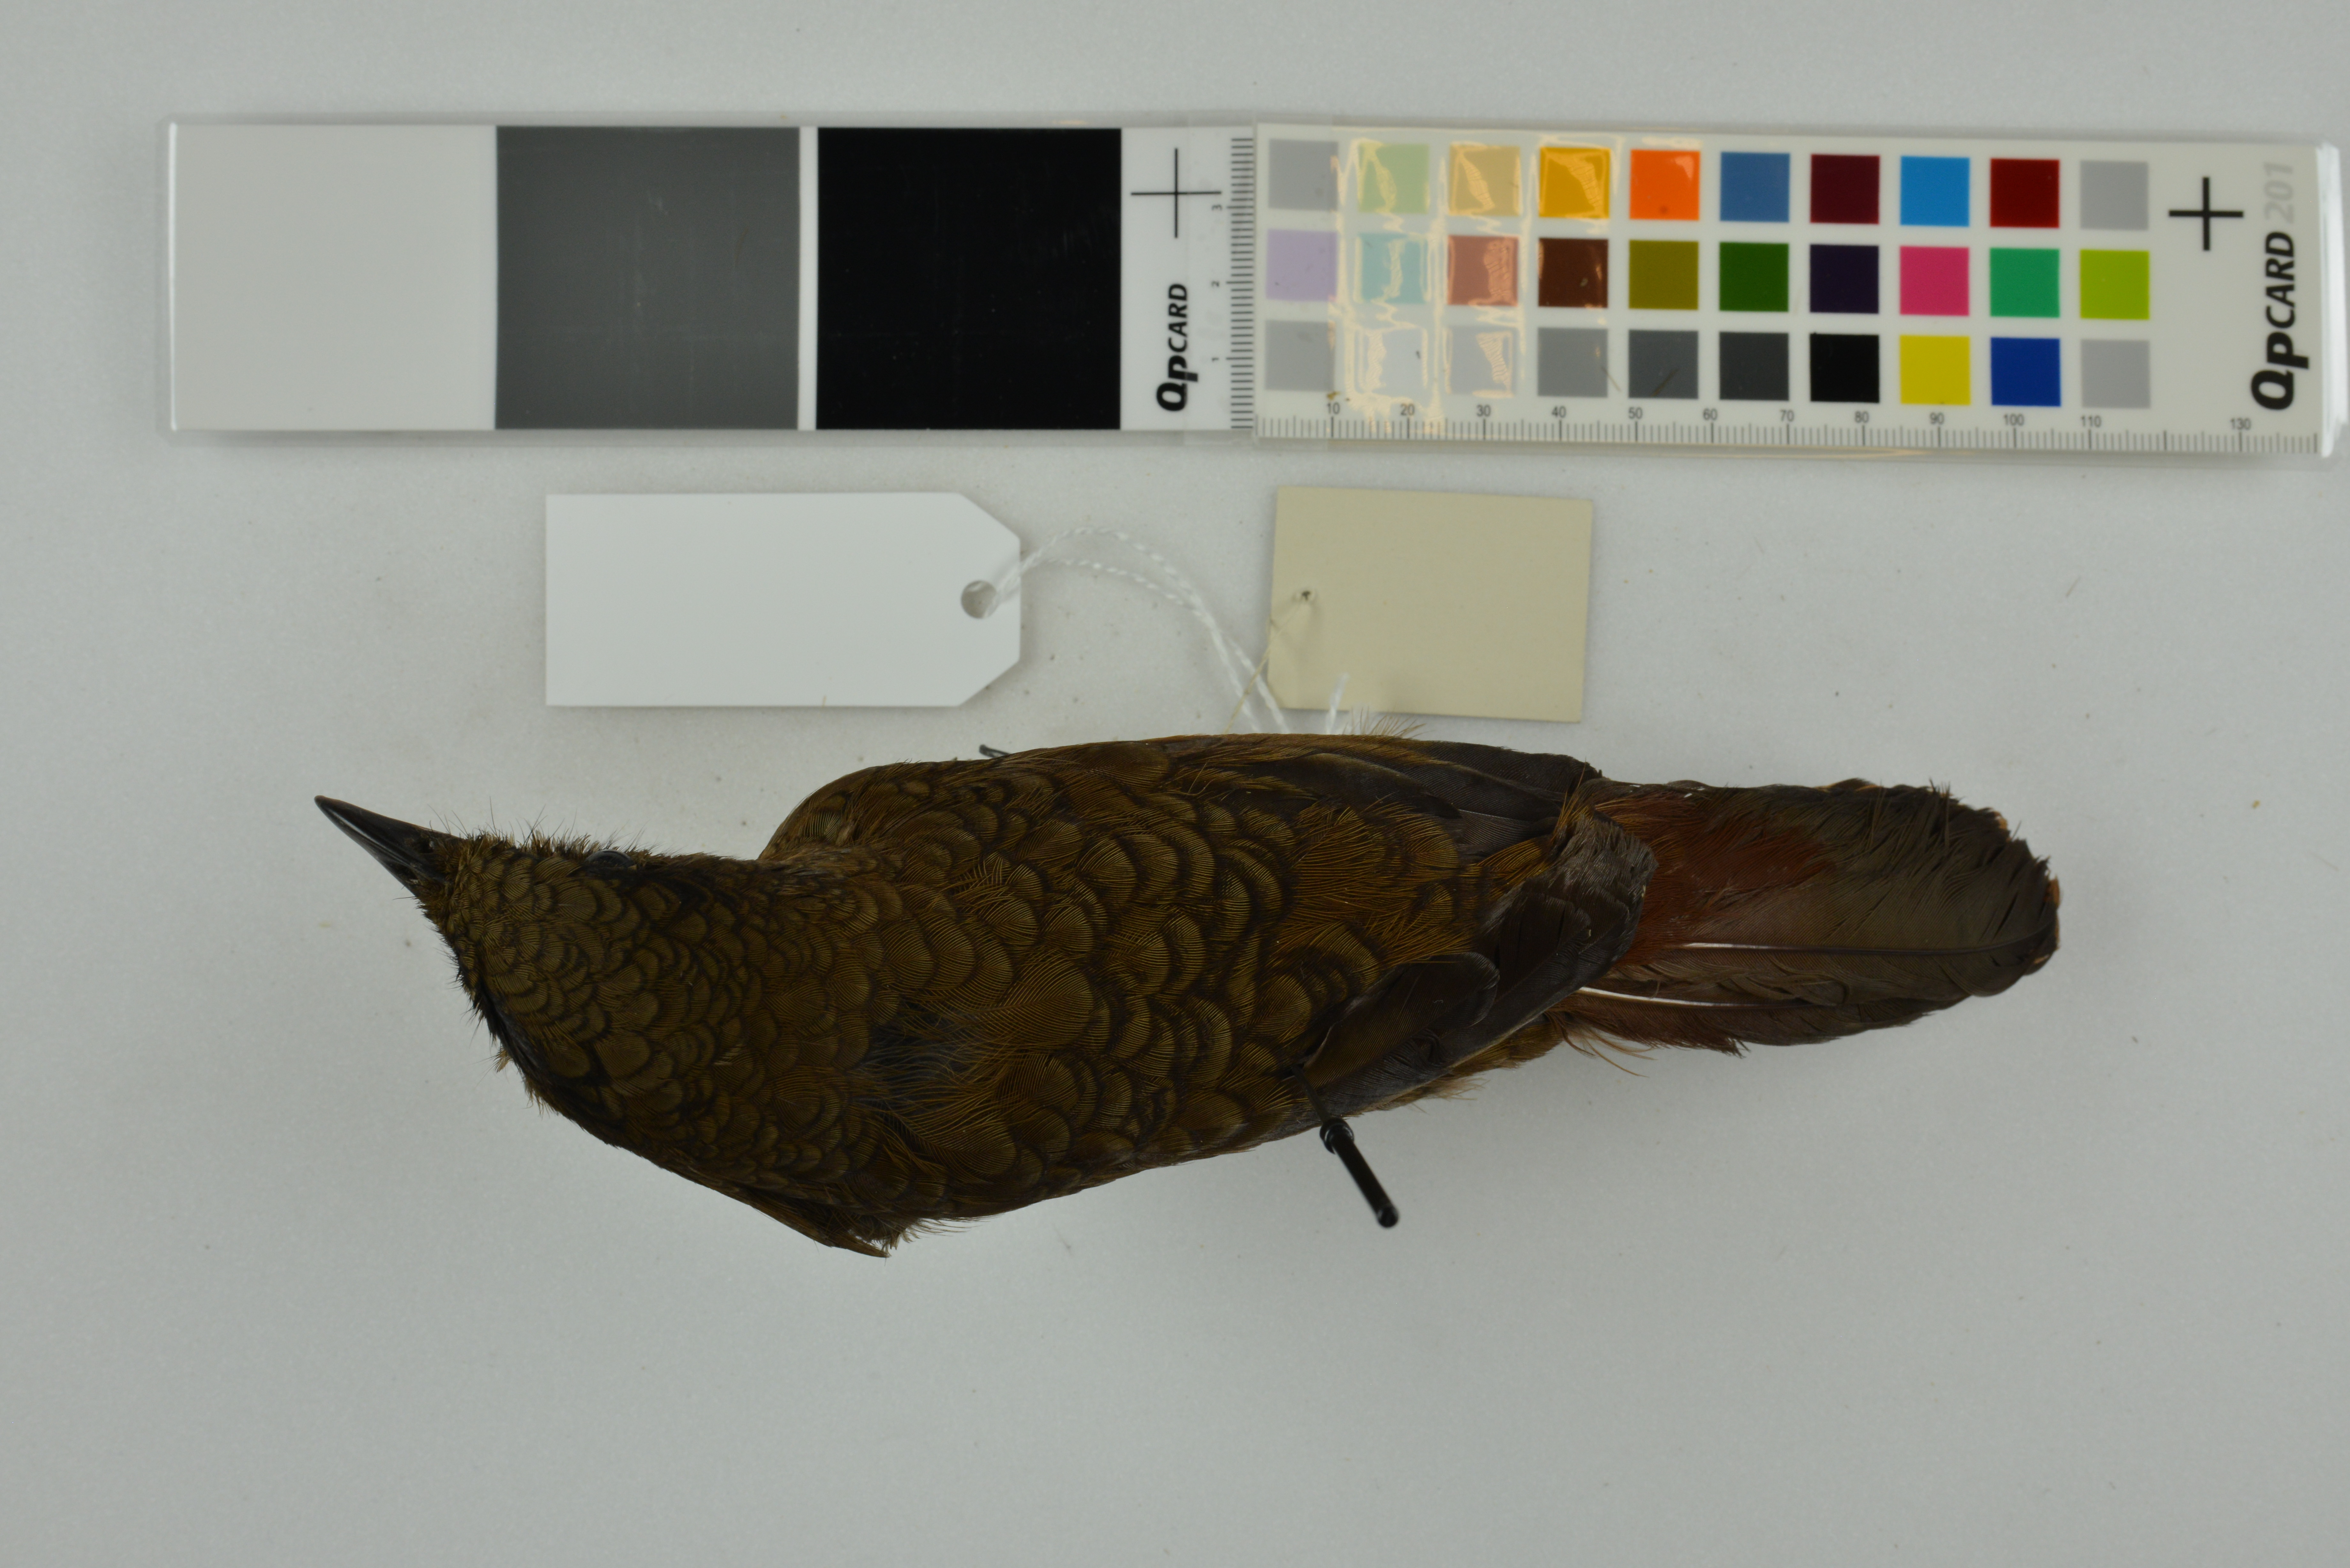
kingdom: Animalia
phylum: Chordata
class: Aves
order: Passeriformes
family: Leiothrichidae
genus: Trochalopteron
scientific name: Trochalopteron squamatum
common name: Blue-winged laughingthrush
